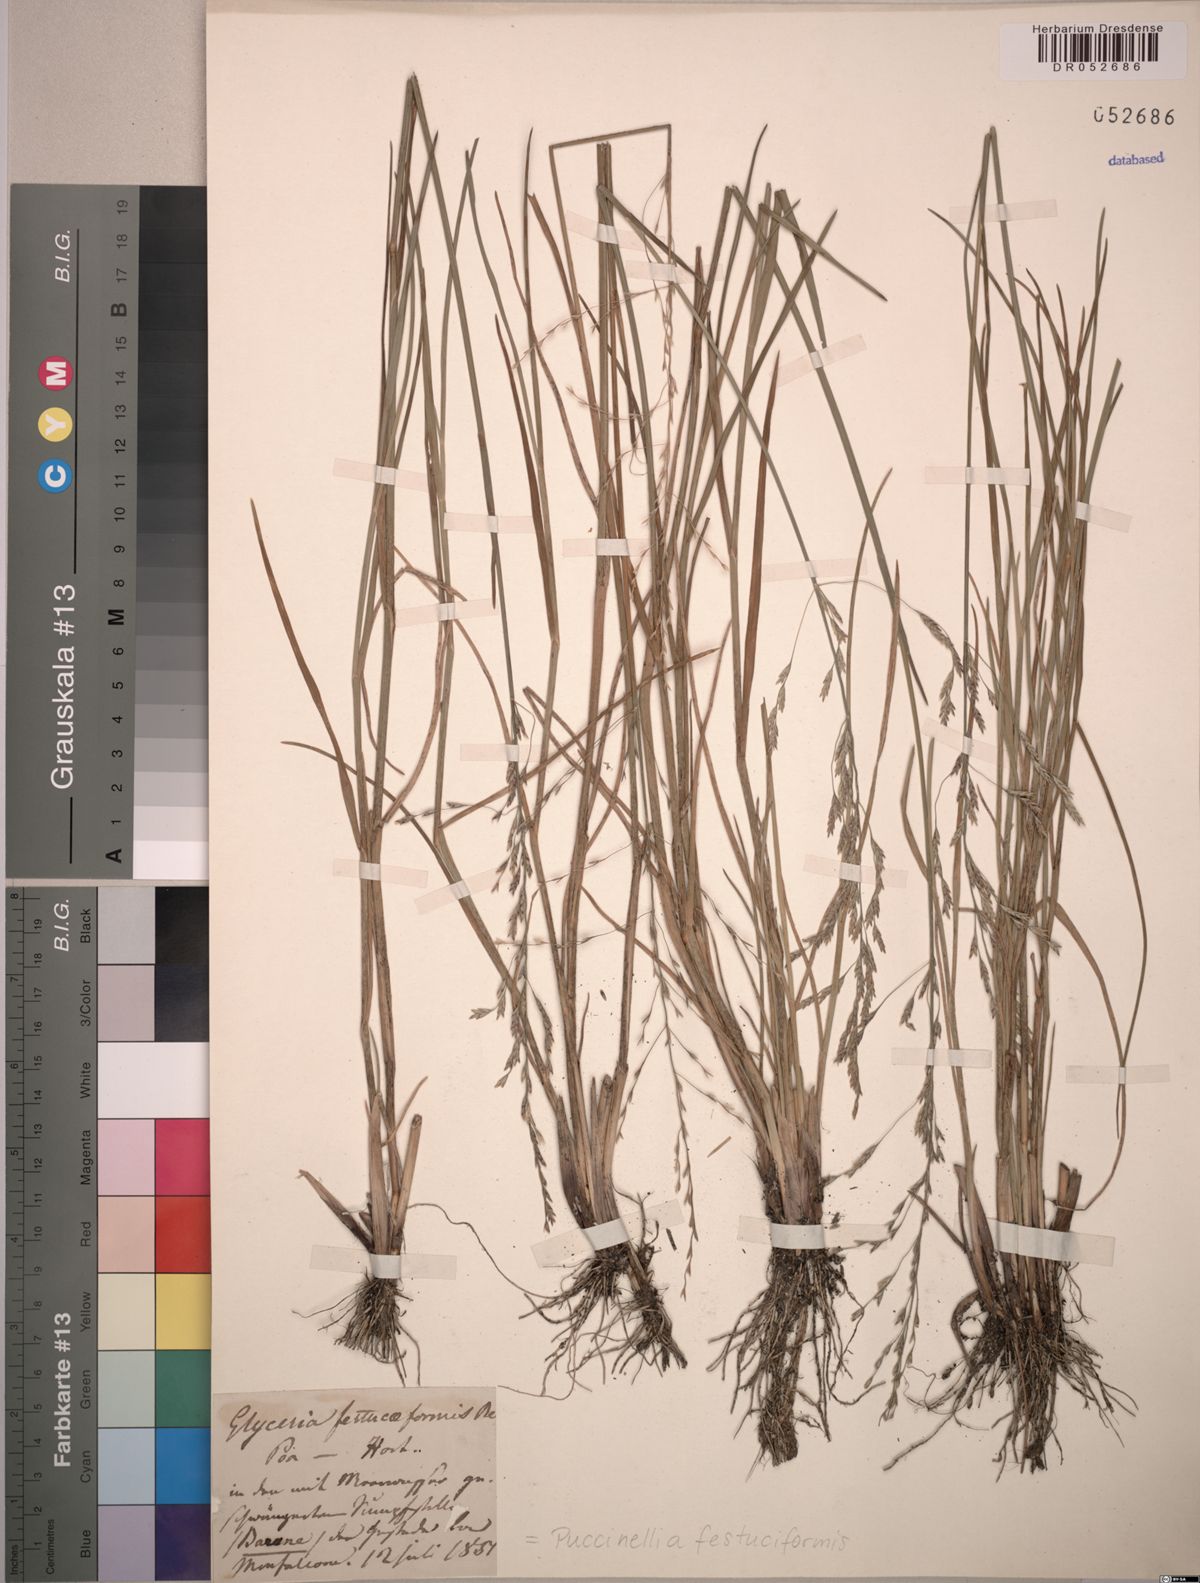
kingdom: Plantae
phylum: Tracheophyta
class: Liliopsida
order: Poales
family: Poaceae
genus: Puccinellia
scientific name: Puccinellia festuciformis
